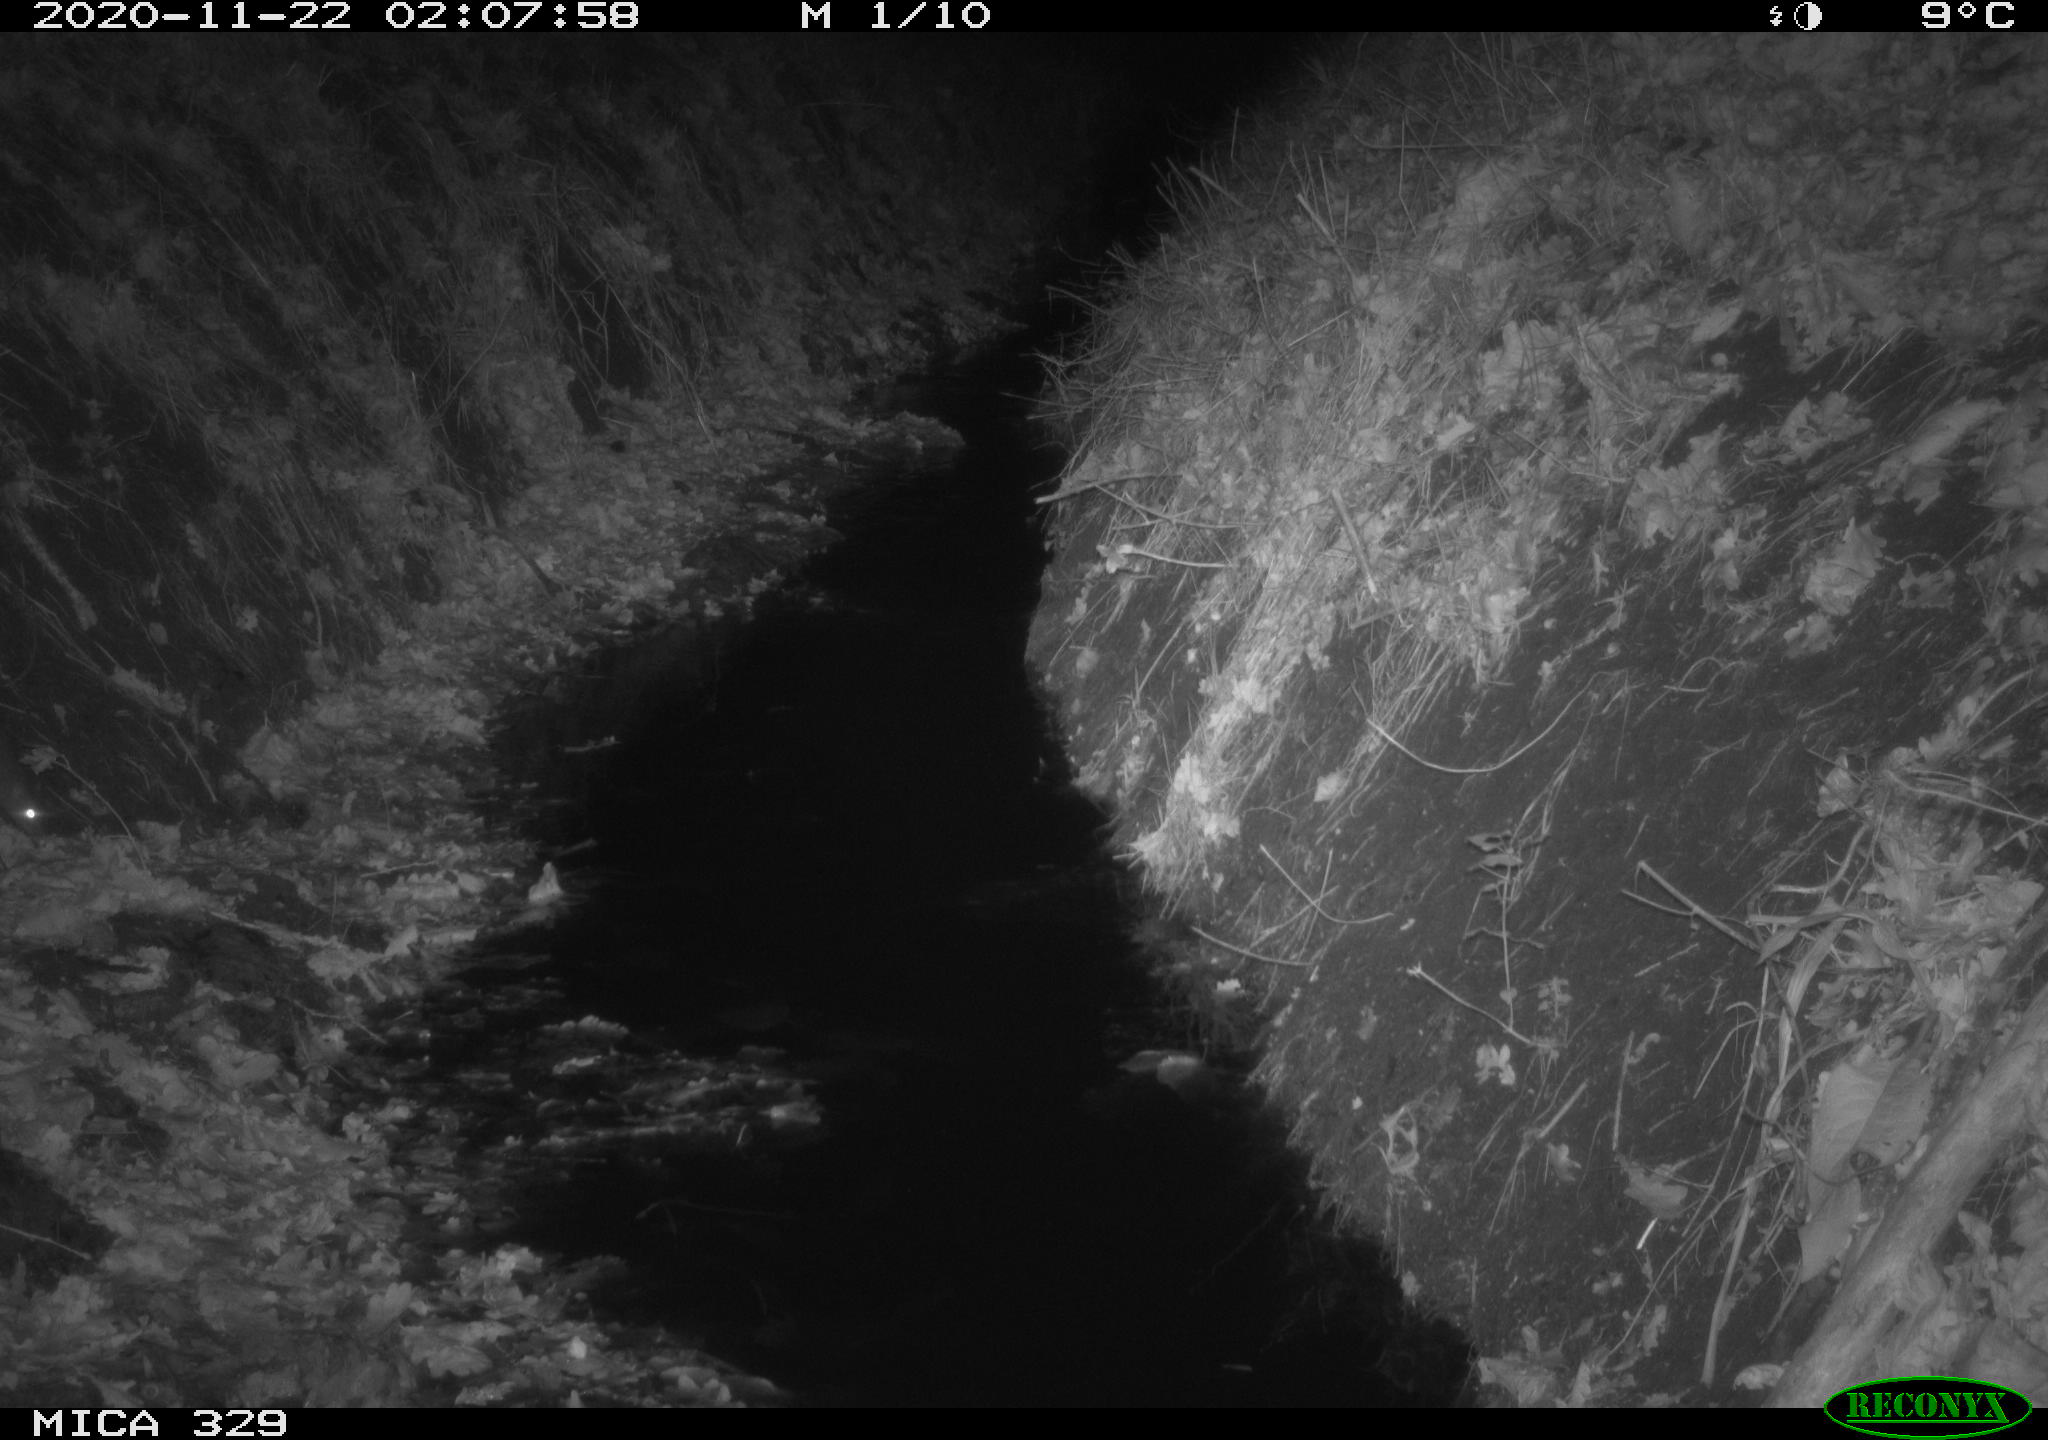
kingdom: Animalia
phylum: Chordata
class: Mammalia
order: Rodentia
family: Muridae
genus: Rattus
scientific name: Rattus norvegicus
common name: Brown rat
